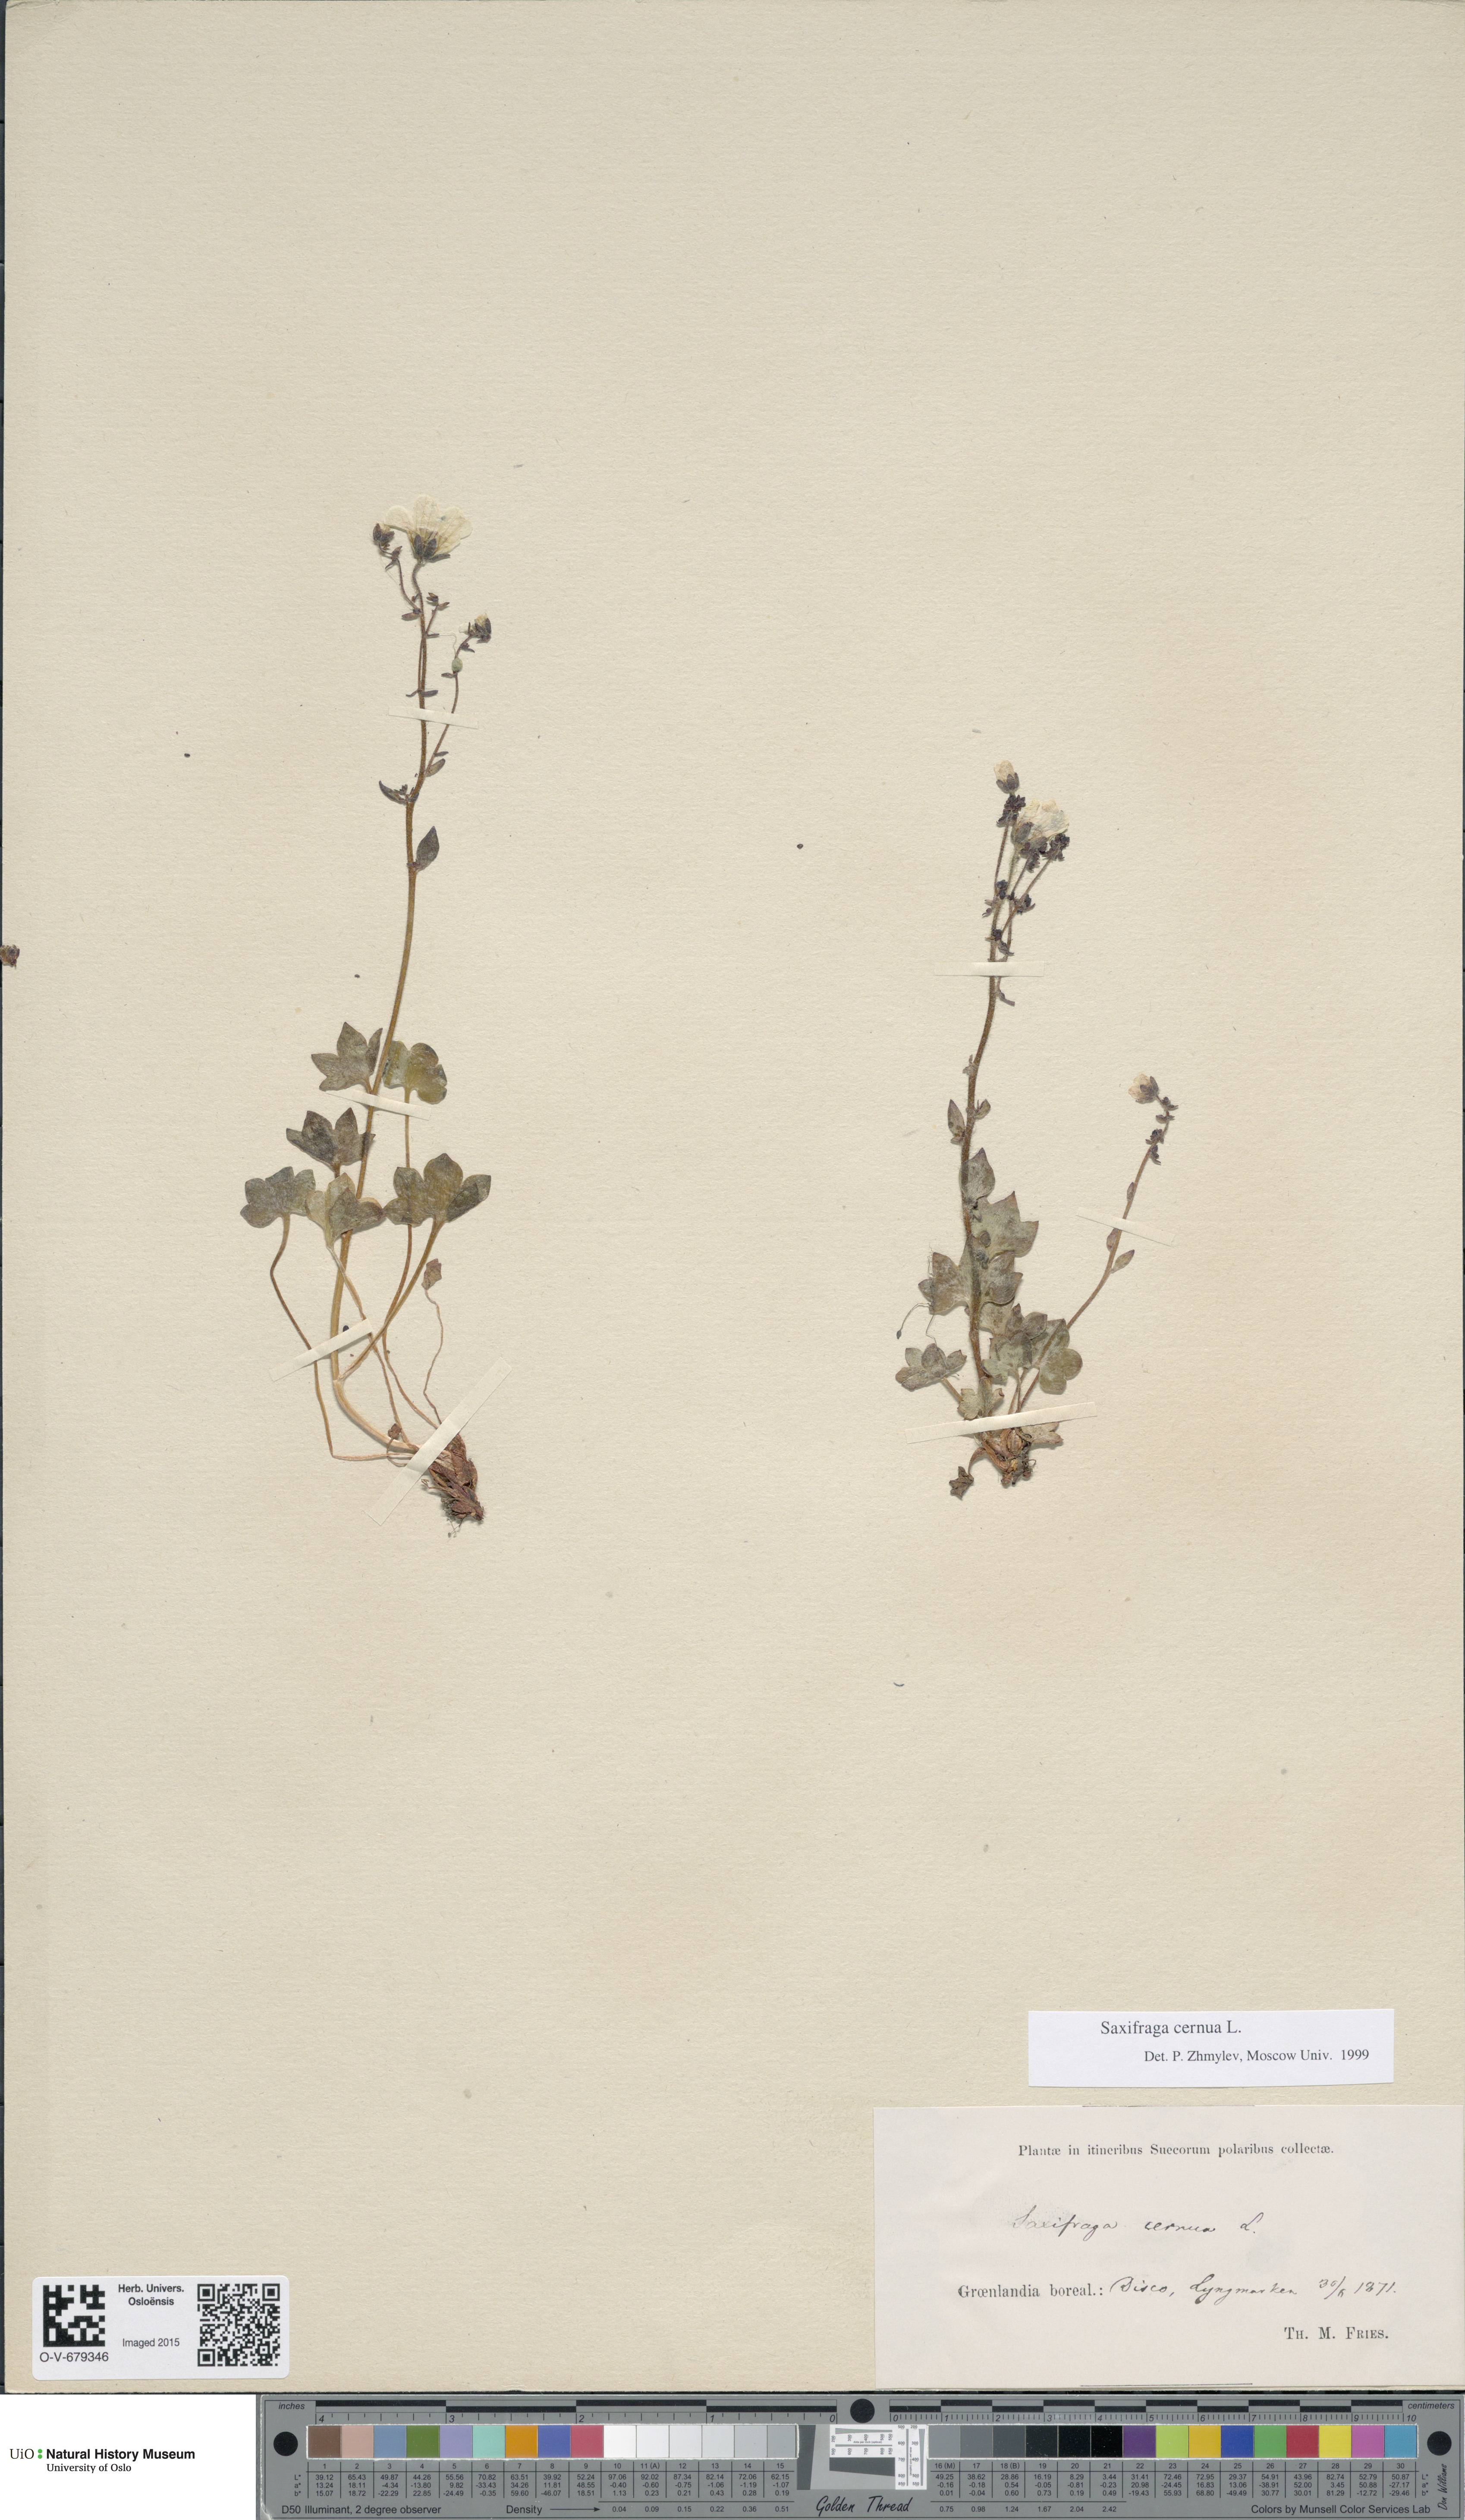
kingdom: Plantae
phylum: Tracheophyta
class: Magnoliopsida
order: Saxifragales
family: Saxifragaceae
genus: Saxifraga
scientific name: Saxifraga cernua
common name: Drooping saxifrage
